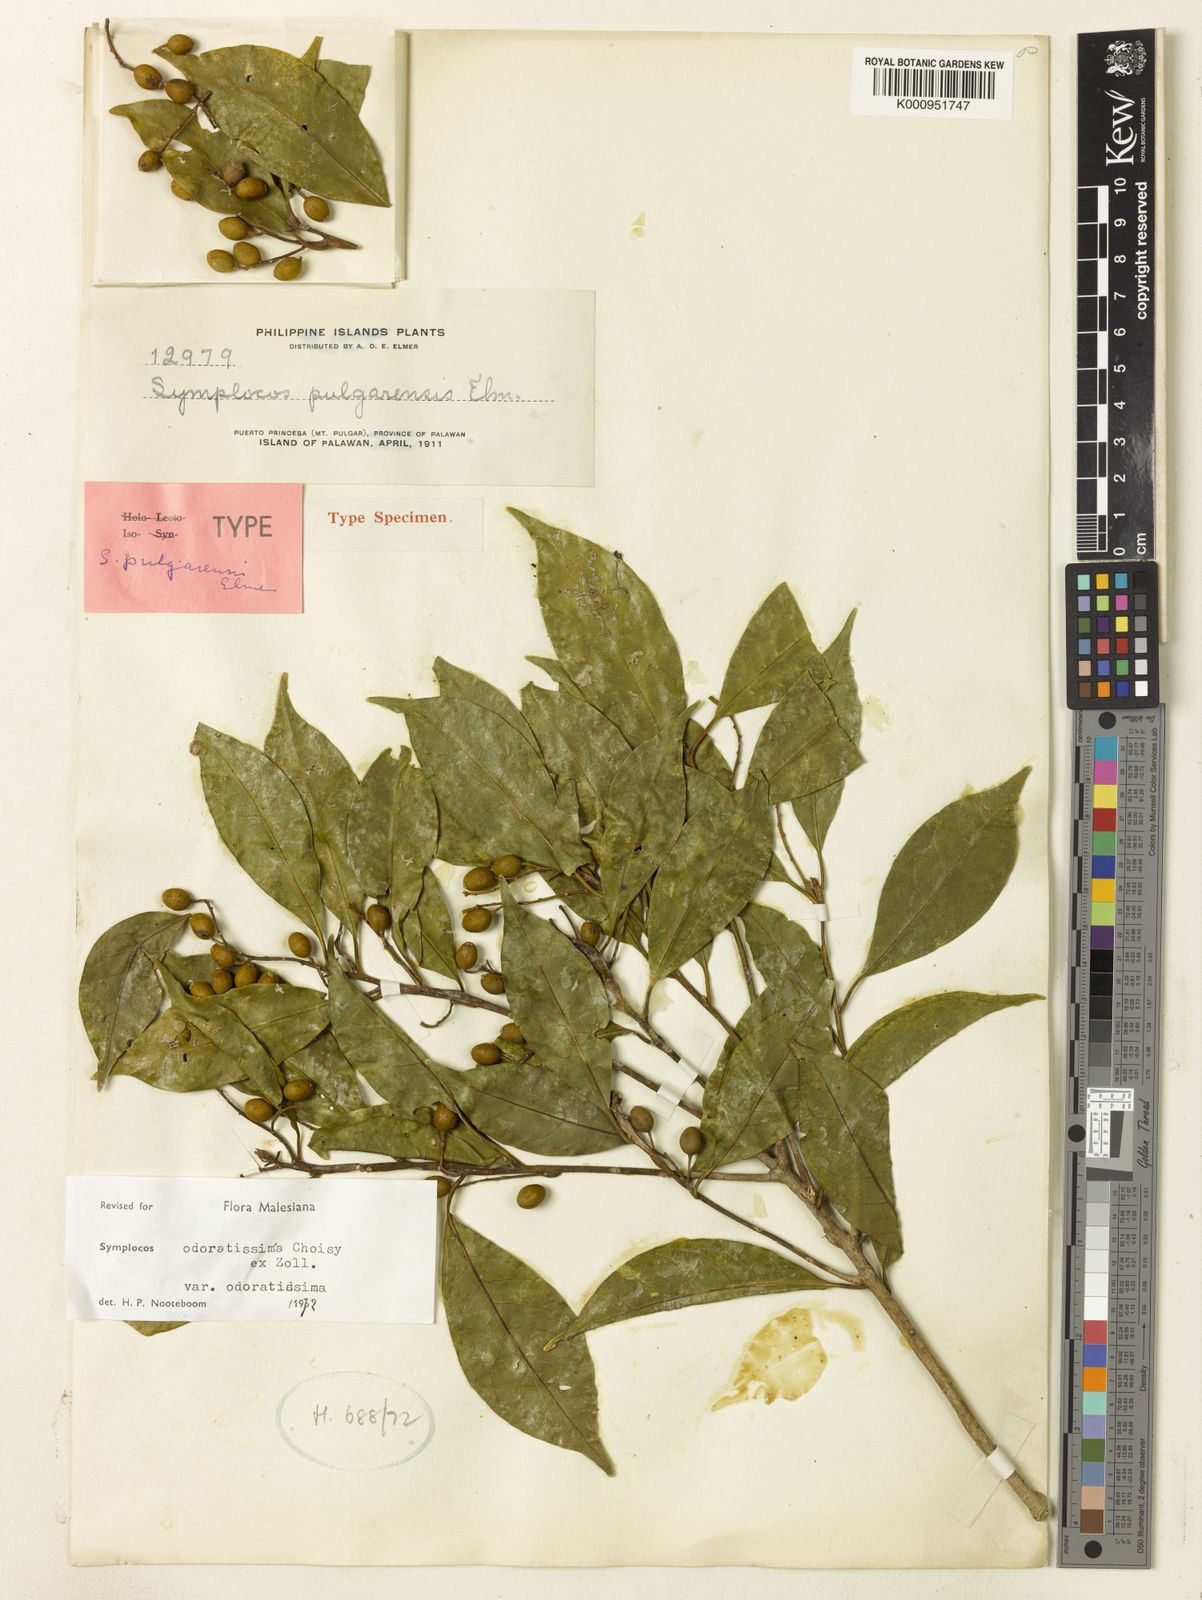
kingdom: Plantae
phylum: Tracheophyta
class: Magnoliopsida
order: Ericales
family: Symplocaceae
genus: Symplocos
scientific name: Symplocos odoratissima
